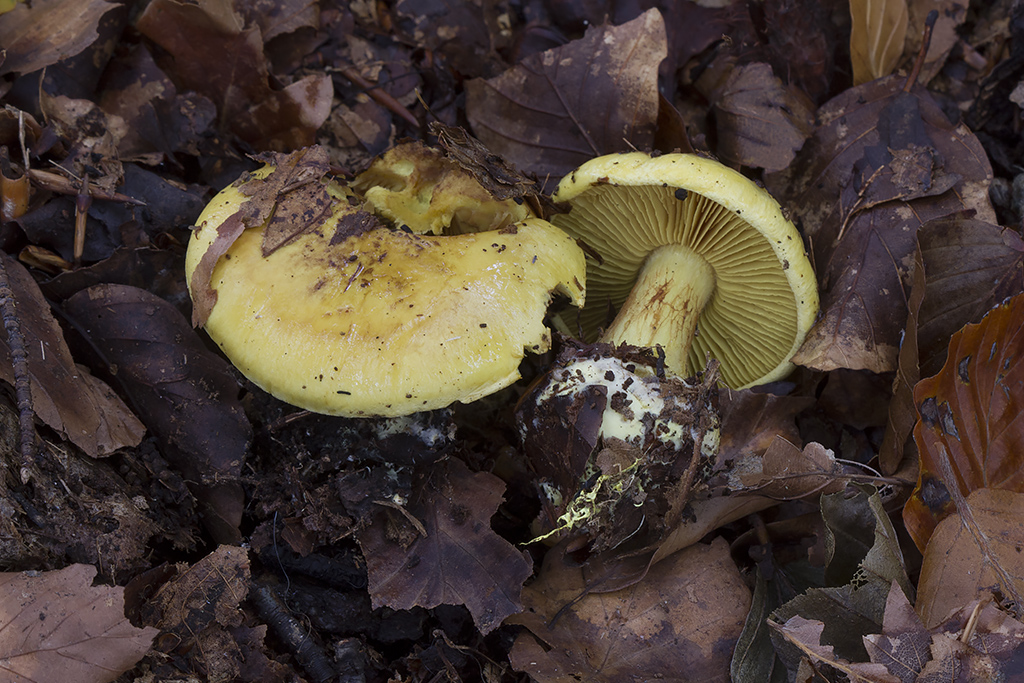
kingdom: Fungi
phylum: Basidiomycota
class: Agaricomycetes
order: Agaricales
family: Cortinariaceae
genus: Calonarius
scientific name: Calonarius splendens
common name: sirene-slørhat
